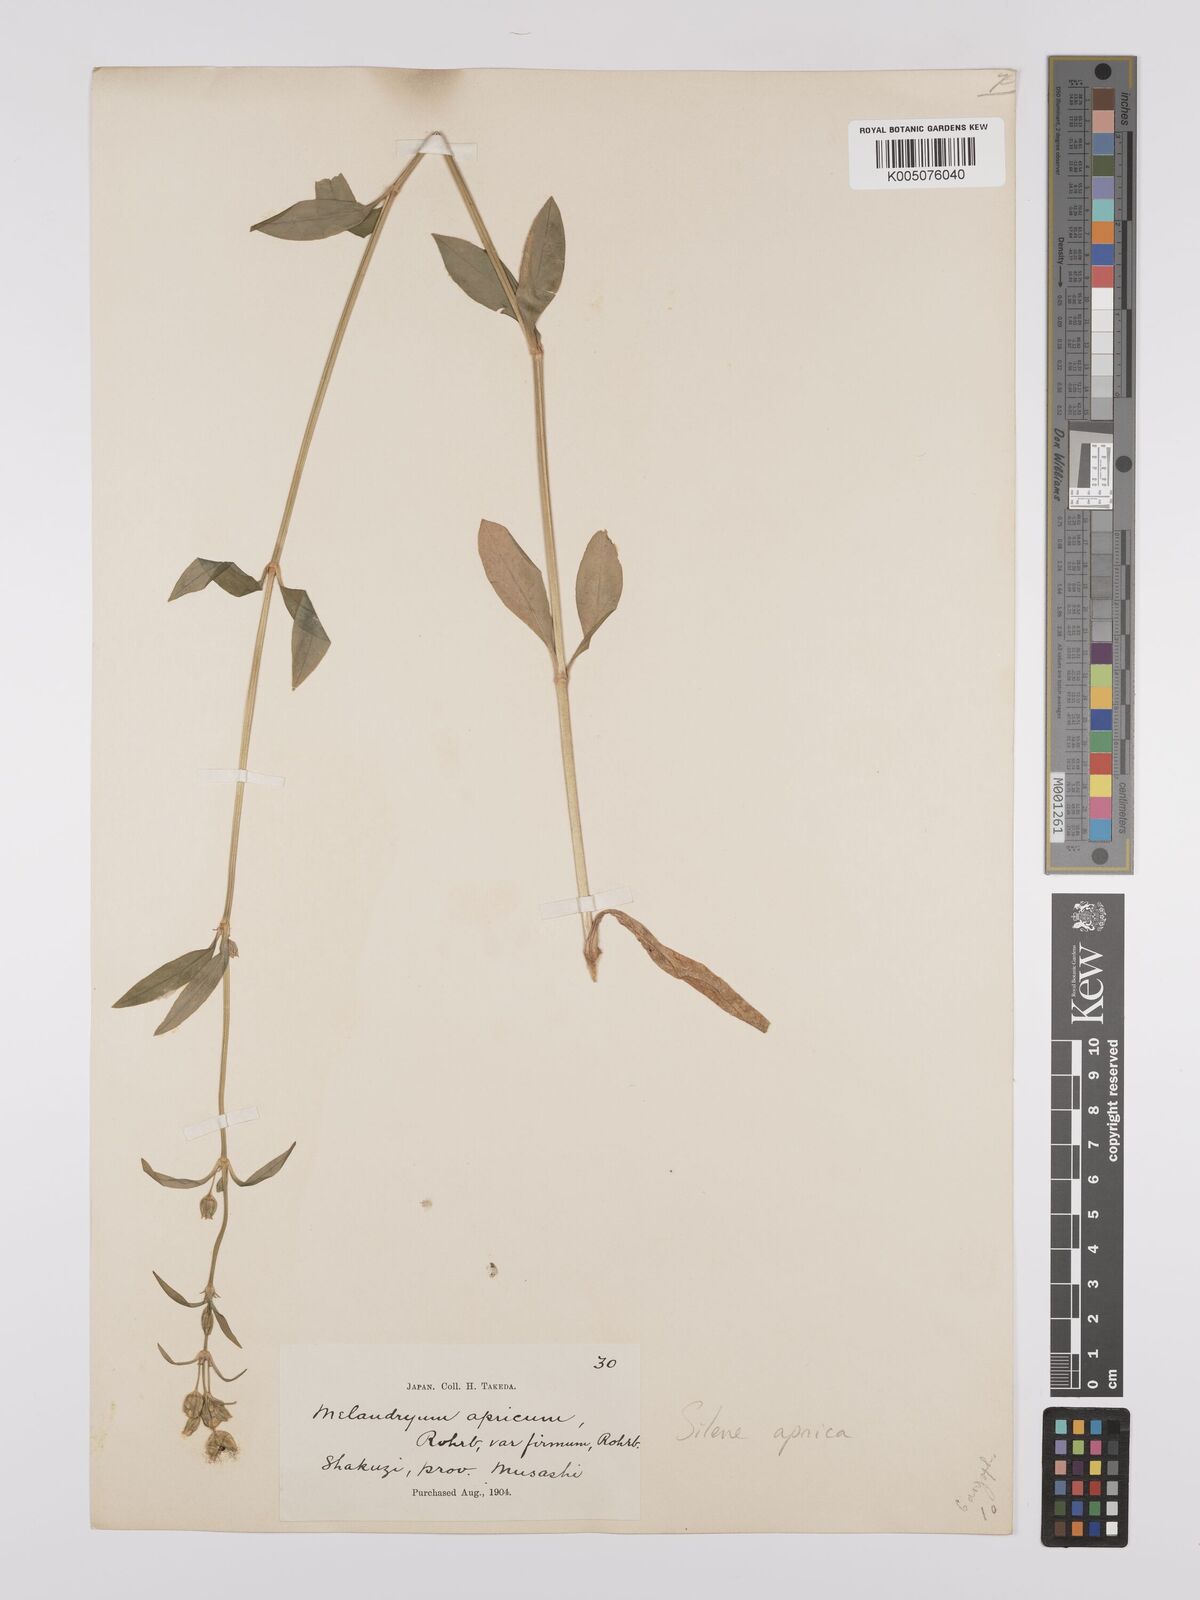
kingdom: Plantae
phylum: Tracheophyta
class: Magnoliopsida
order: Caryophyllales
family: Caryophyllaceae
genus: Silene
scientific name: Silene aprica
